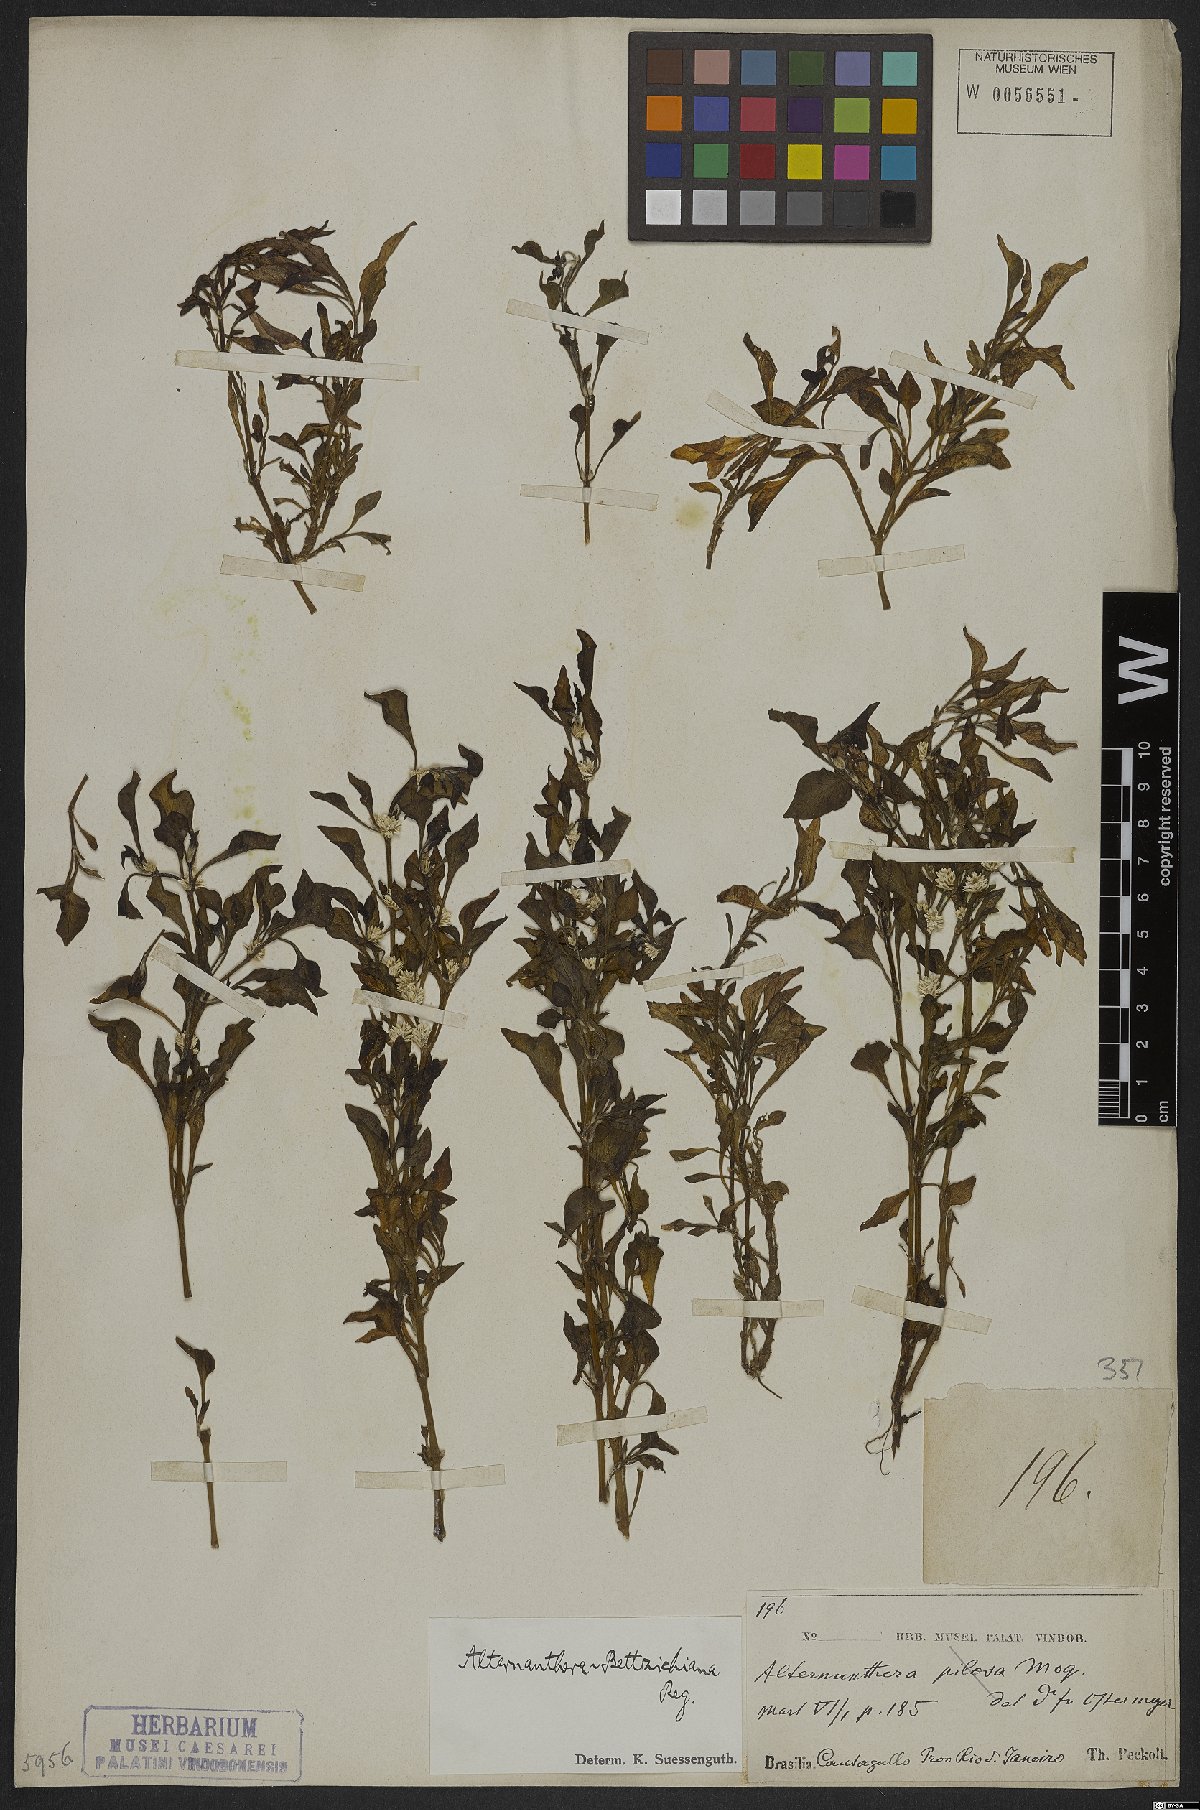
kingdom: Plantae
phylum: Tracheophyta
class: Magnoliopsida
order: Caryophyllales
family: Amaranthaceae
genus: Alternanthera
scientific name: Alternanthera bettzickiana
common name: Calico-plant
